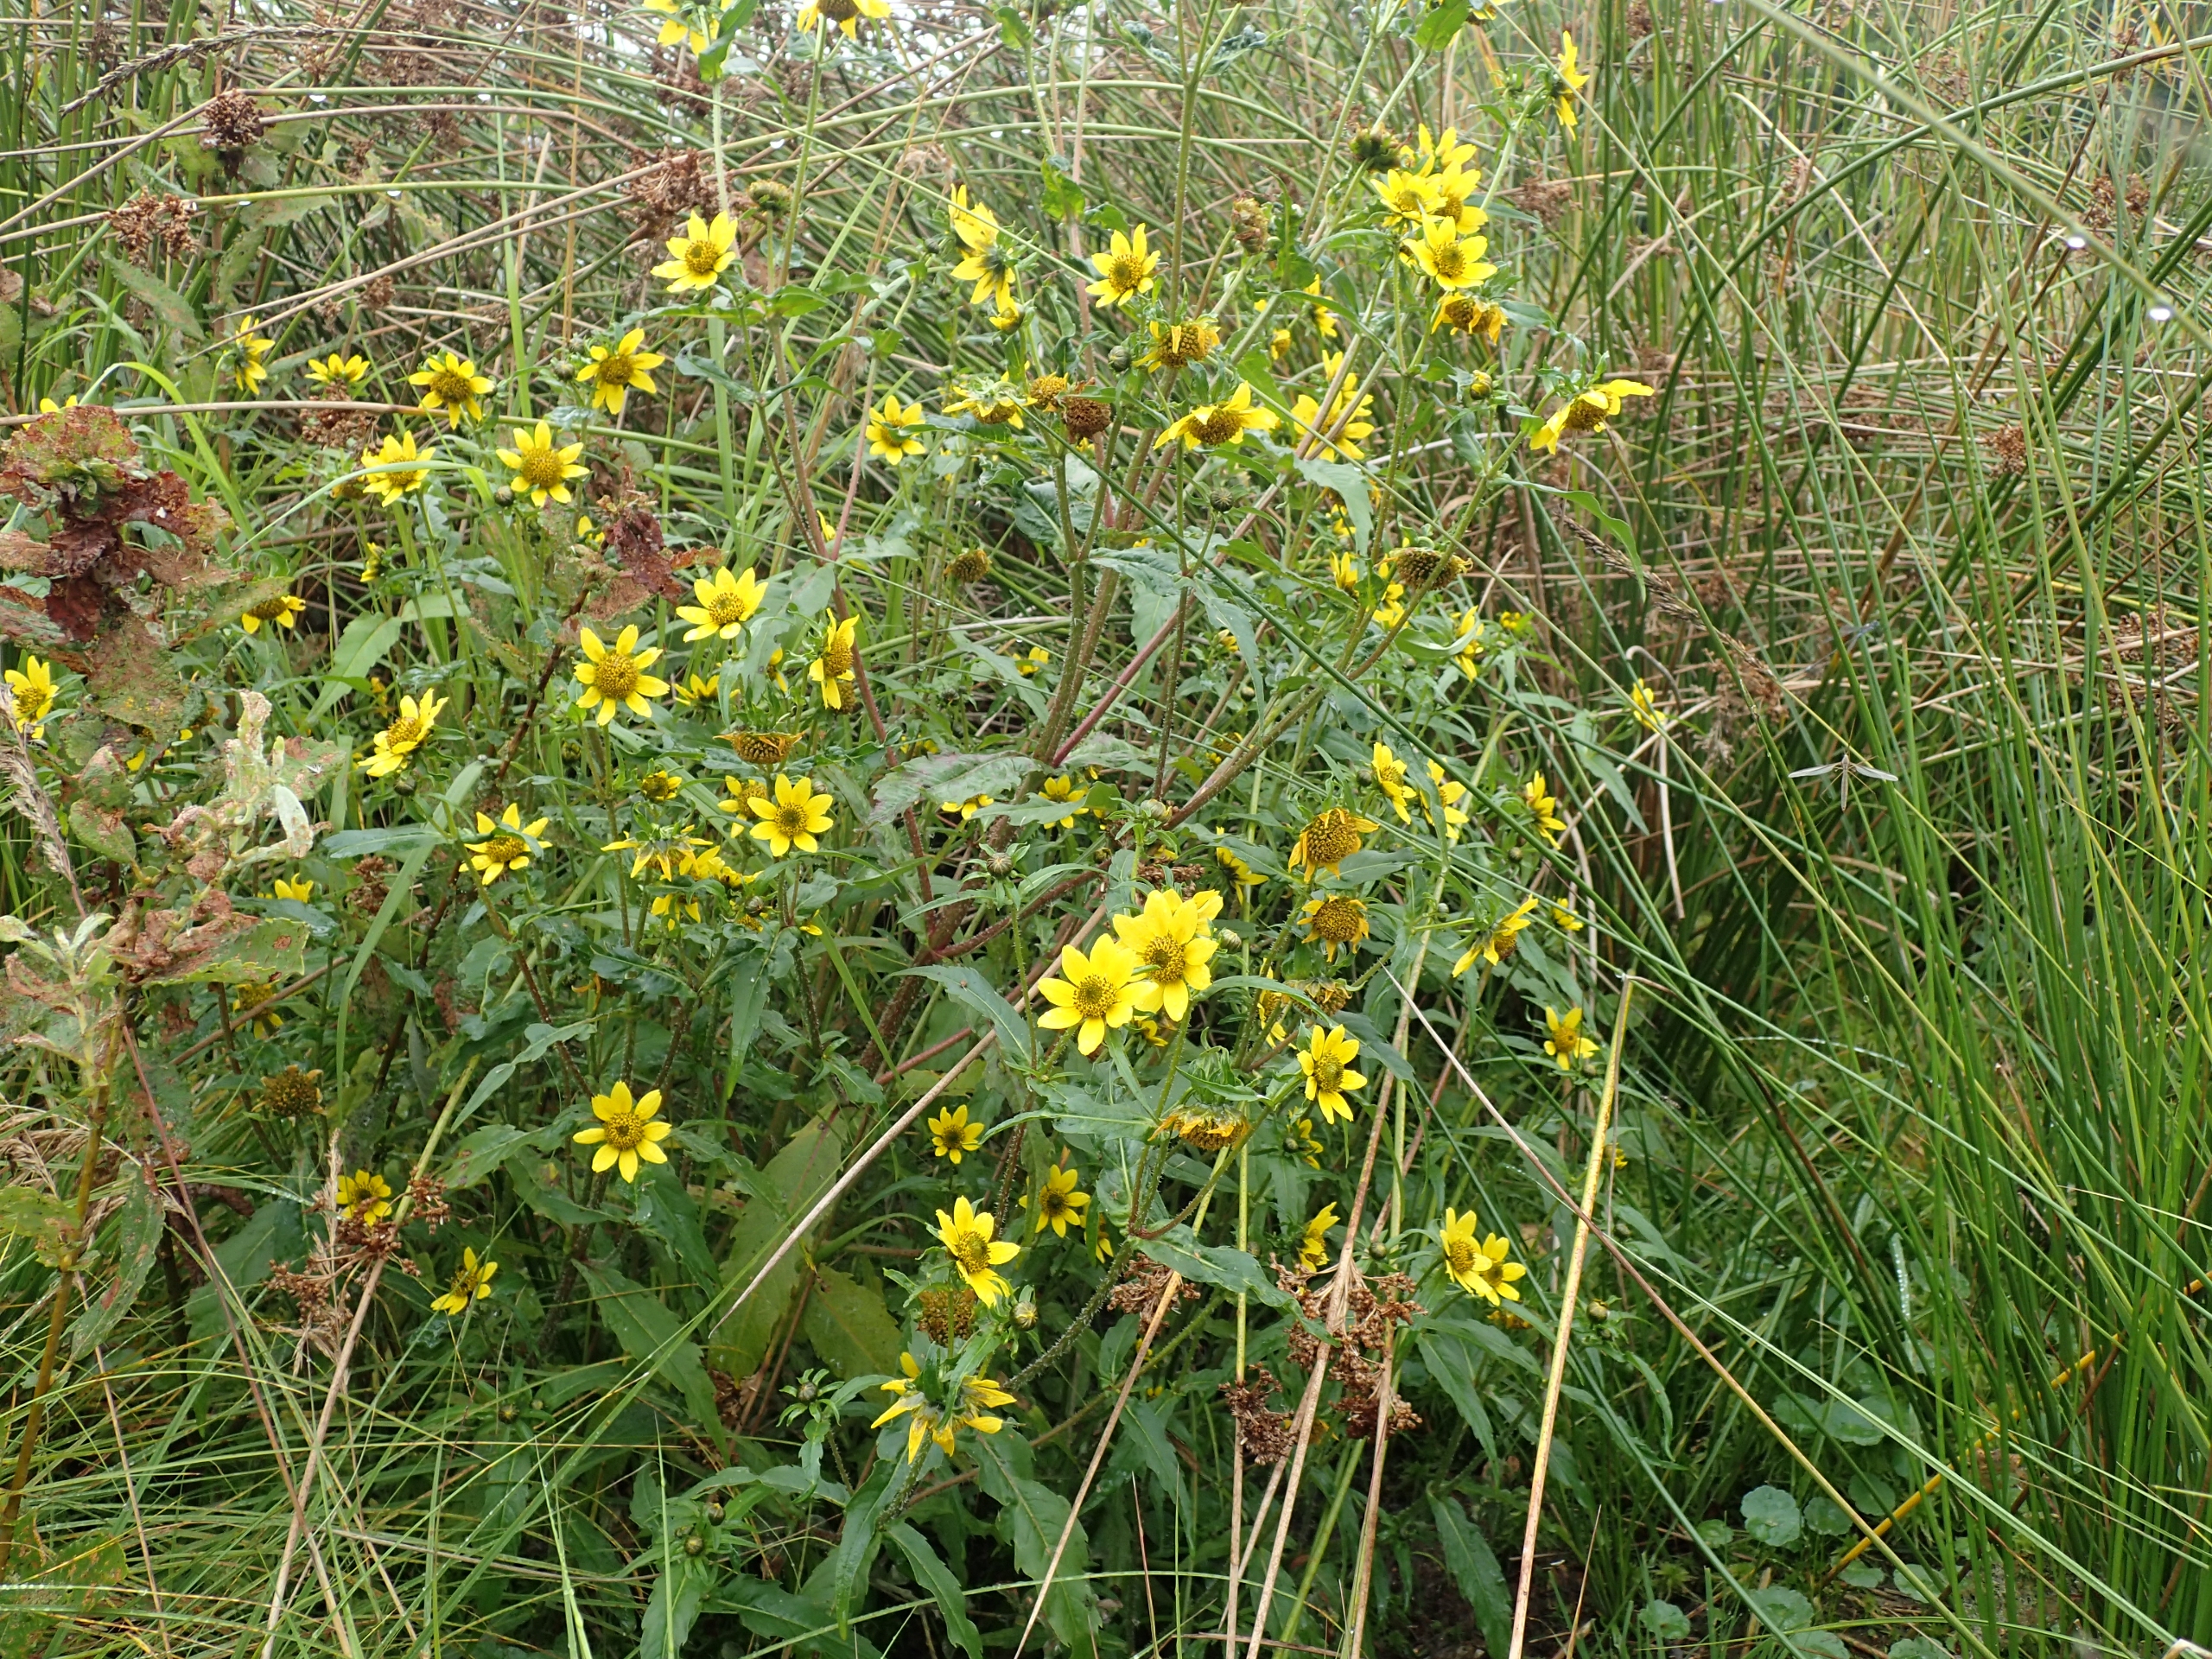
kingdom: Plantae
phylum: Tracheophyta
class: Magnoliopsida
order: Asterales
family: Asteraceae
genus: Bidens
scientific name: Bidens cernua
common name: Nikkende brøndsel
